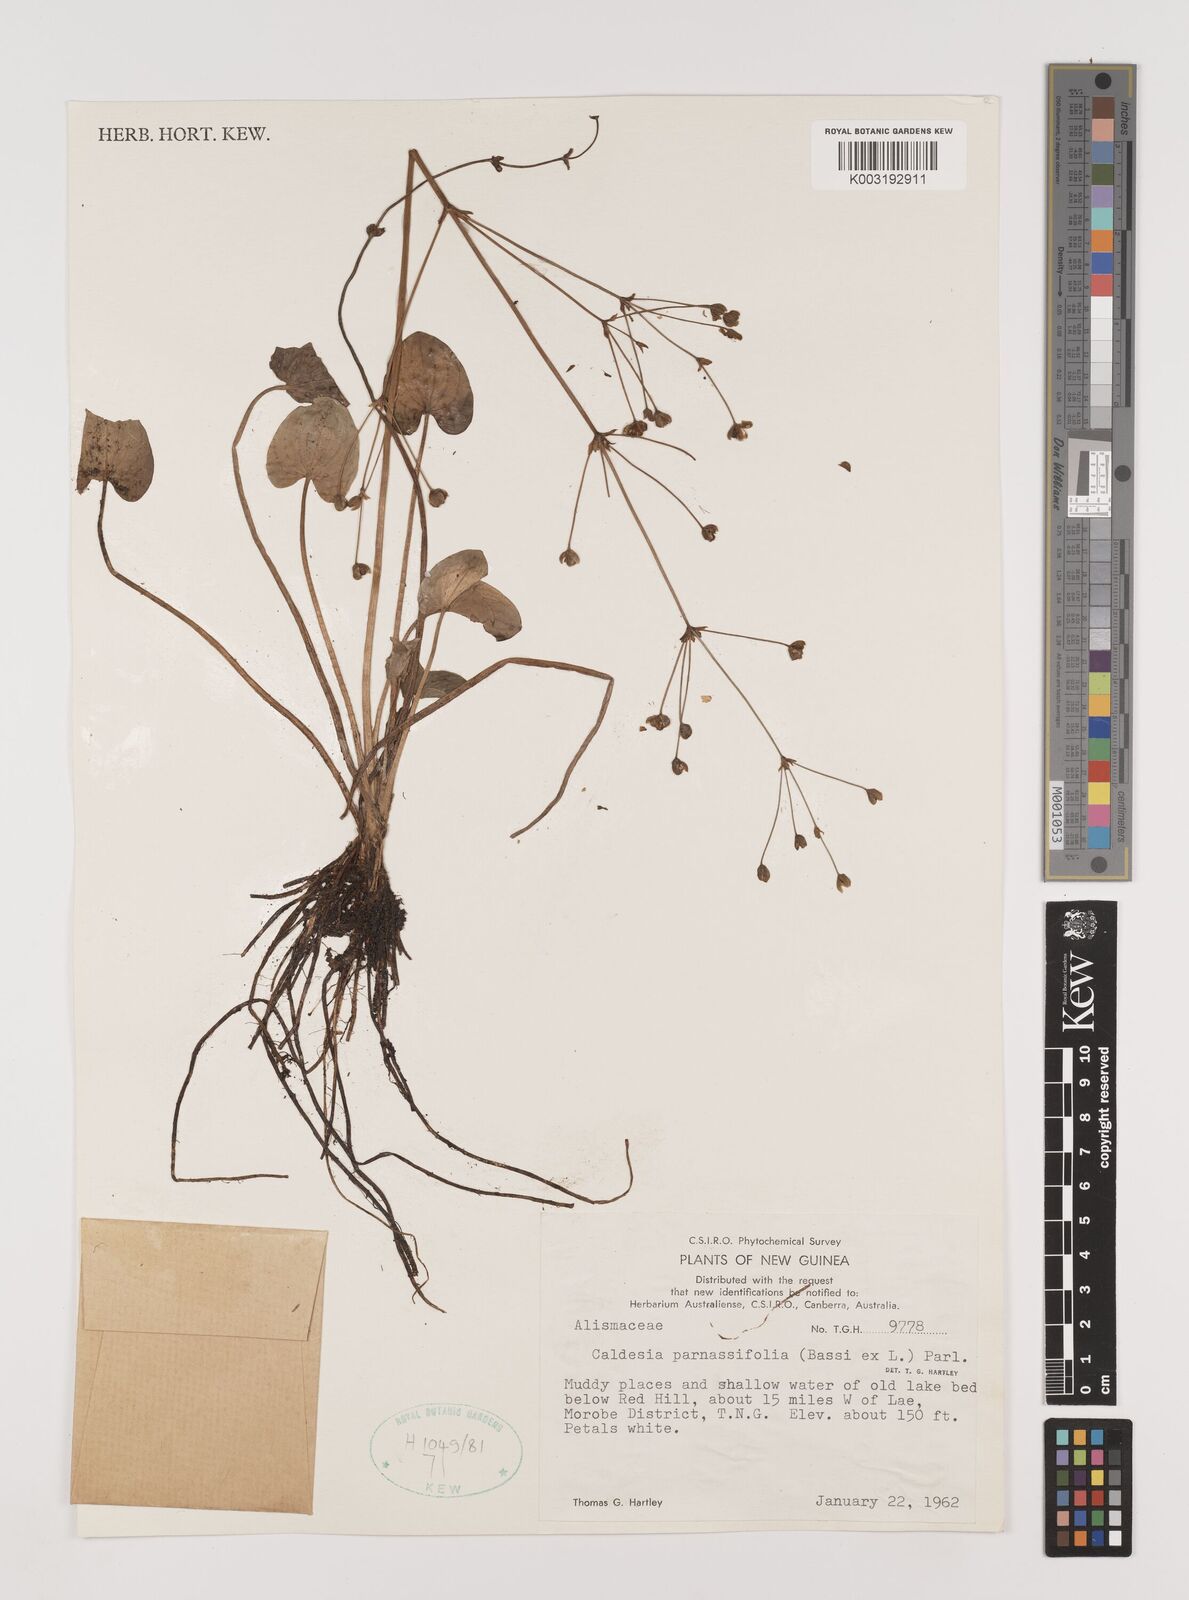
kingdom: Plantae
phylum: Tracheophyta
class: Liliopsida
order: Alismatales
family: Alismataceae
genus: Caldesia
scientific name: Caldesia parnassifolia
